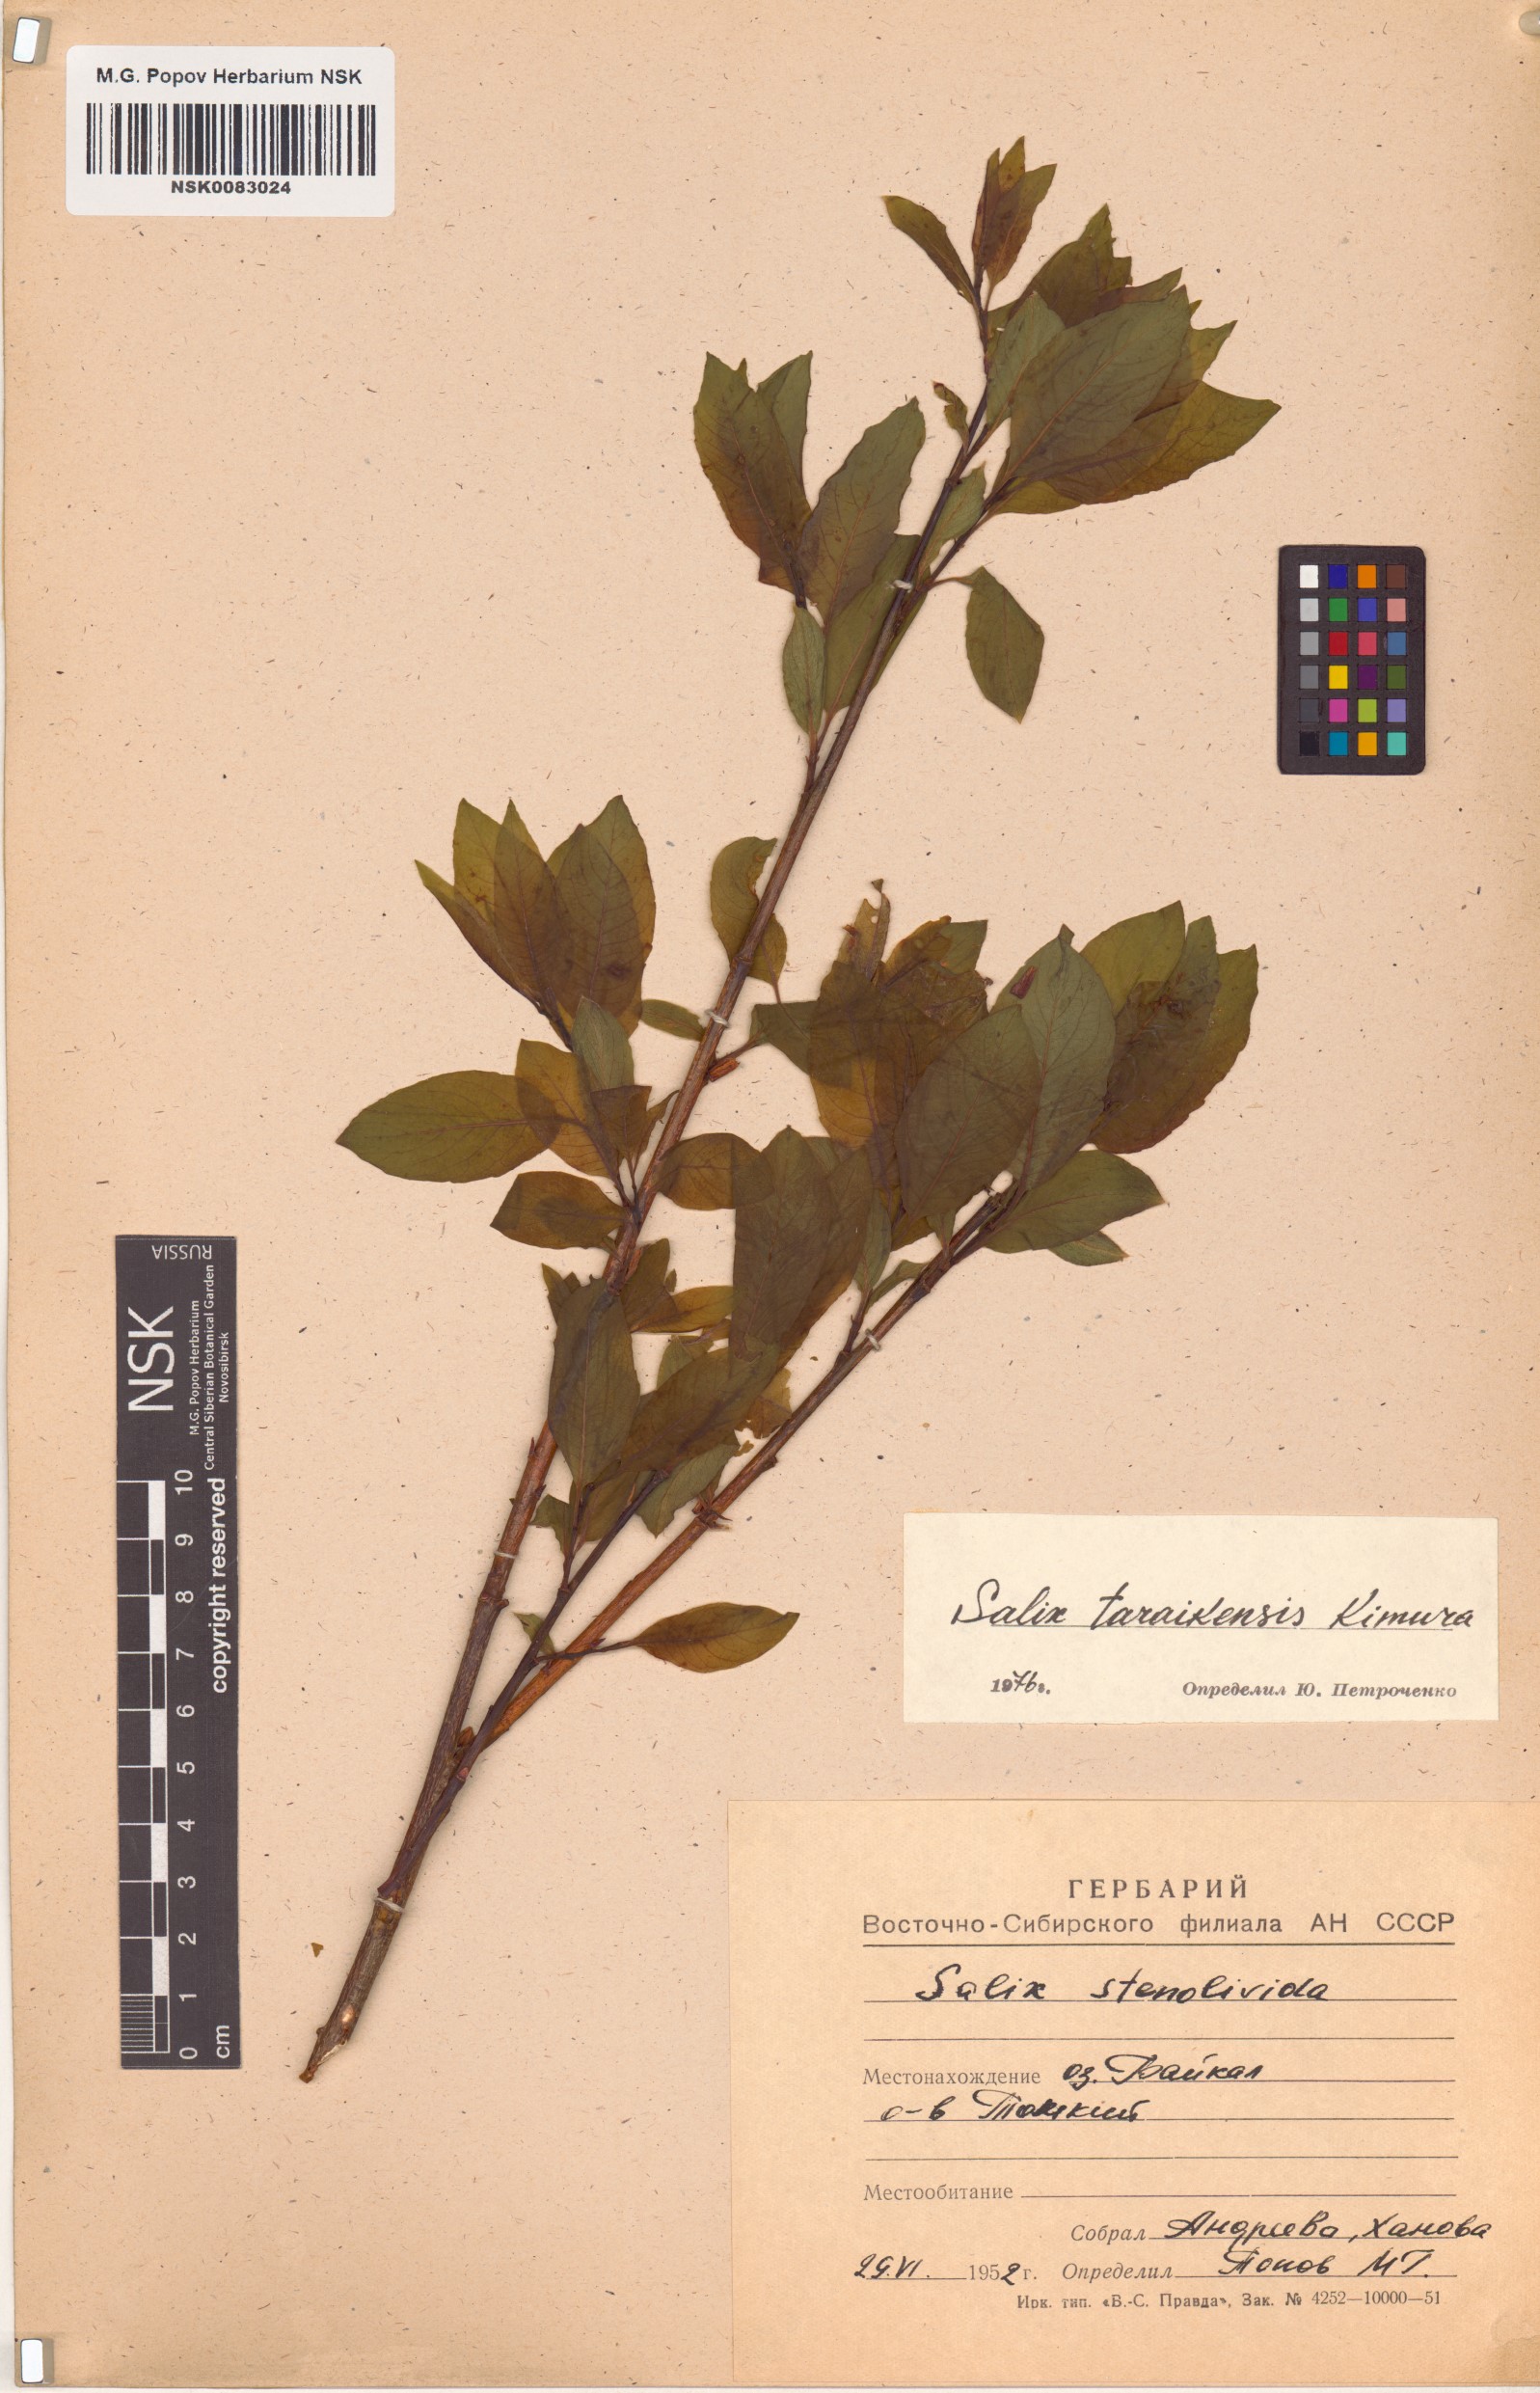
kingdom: Plantae
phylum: Tracheophyta
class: Magnoliopsida
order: Malpighiales
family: Salicaceae
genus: Salix
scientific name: Salix taraikensis
